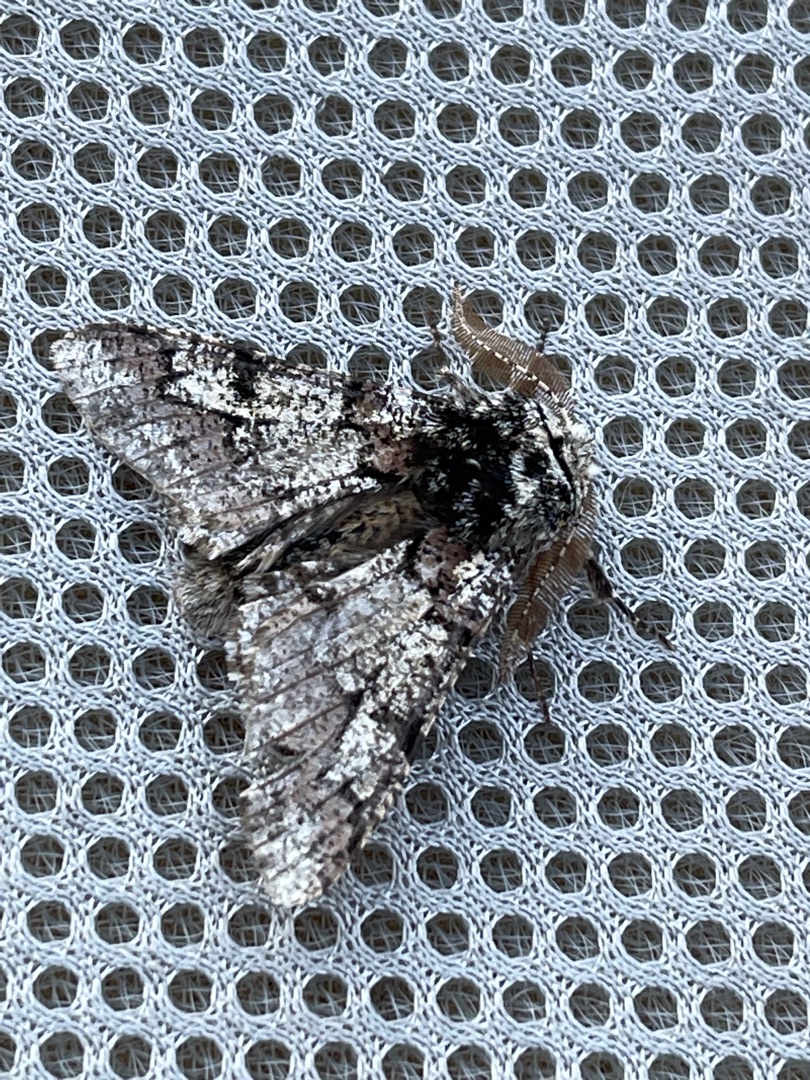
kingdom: Animalia
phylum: Arthropoda
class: Insecta
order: Lepidoptera
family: Geometridae
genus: Biston
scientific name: Biston strataria
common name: Broget vintermåler
